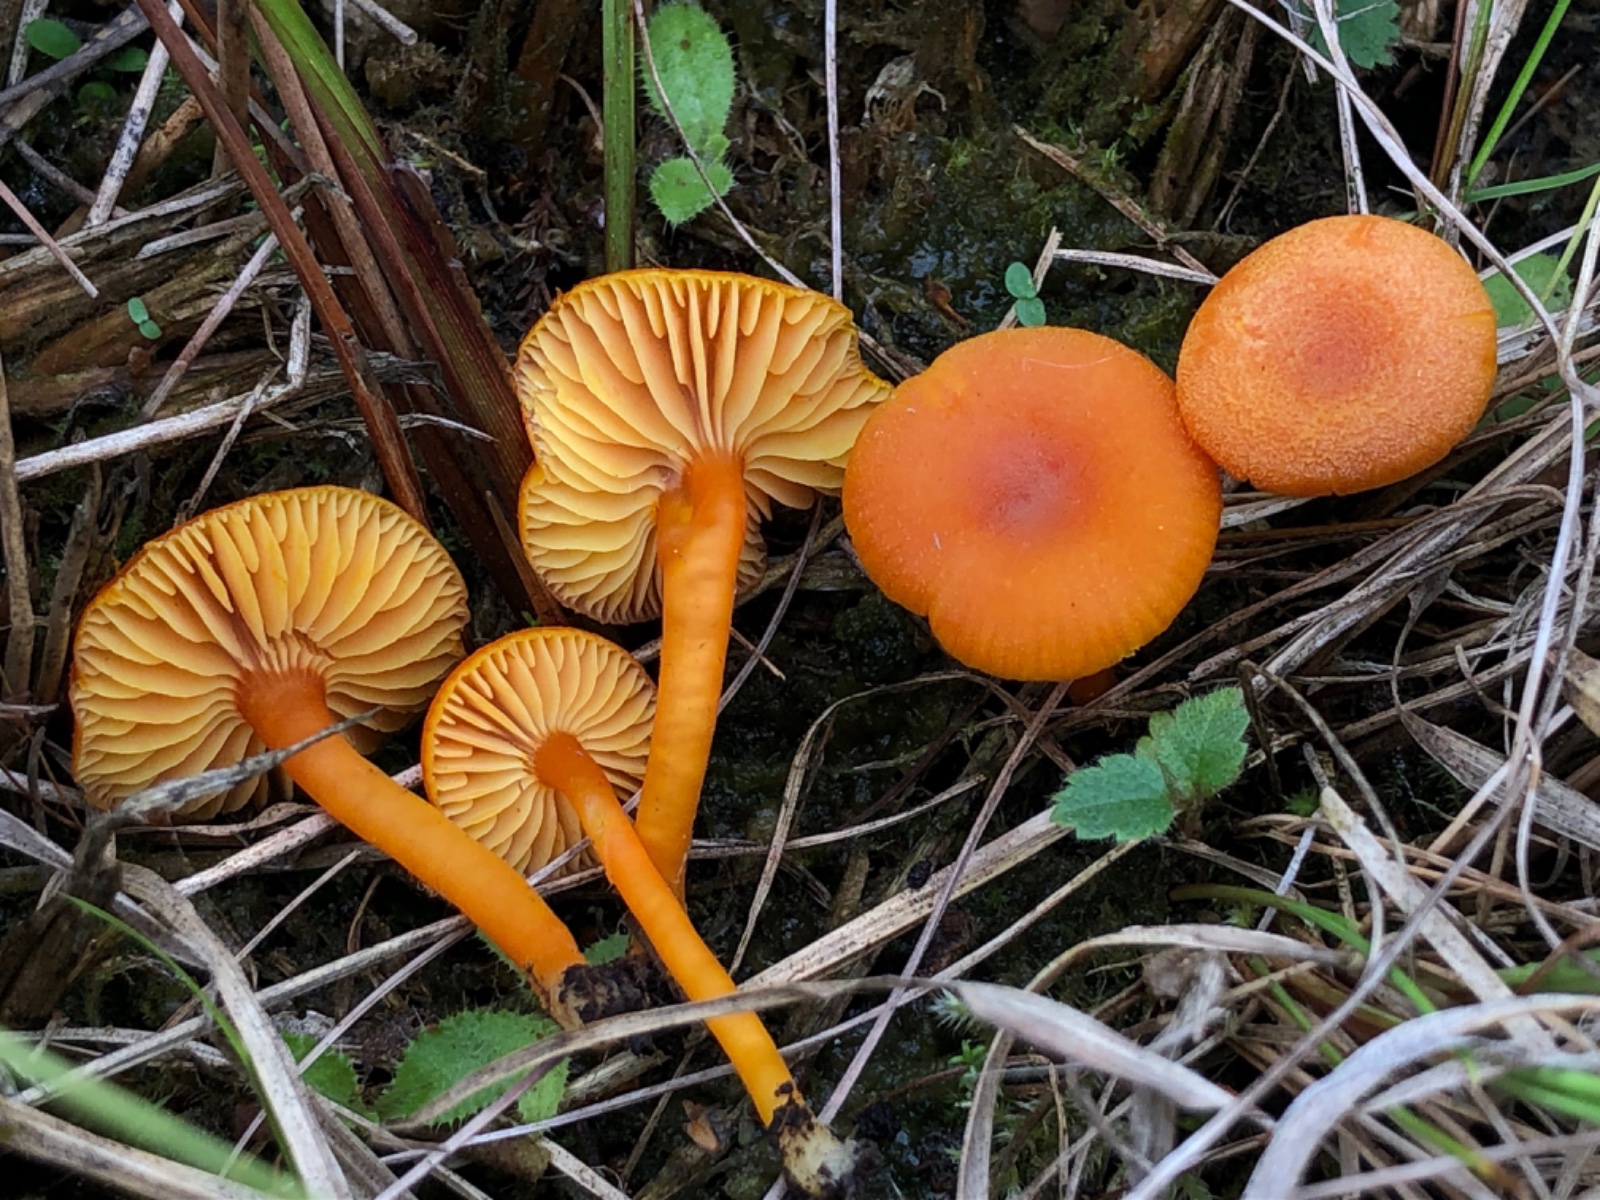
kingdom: Fungi
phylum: Basidiomycota
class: Agaricomycetes
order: Agaricales
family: Hygrophoraceae
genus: Hygrocybe
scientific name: Hygrocybe miniata
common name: mønje-vokshat
